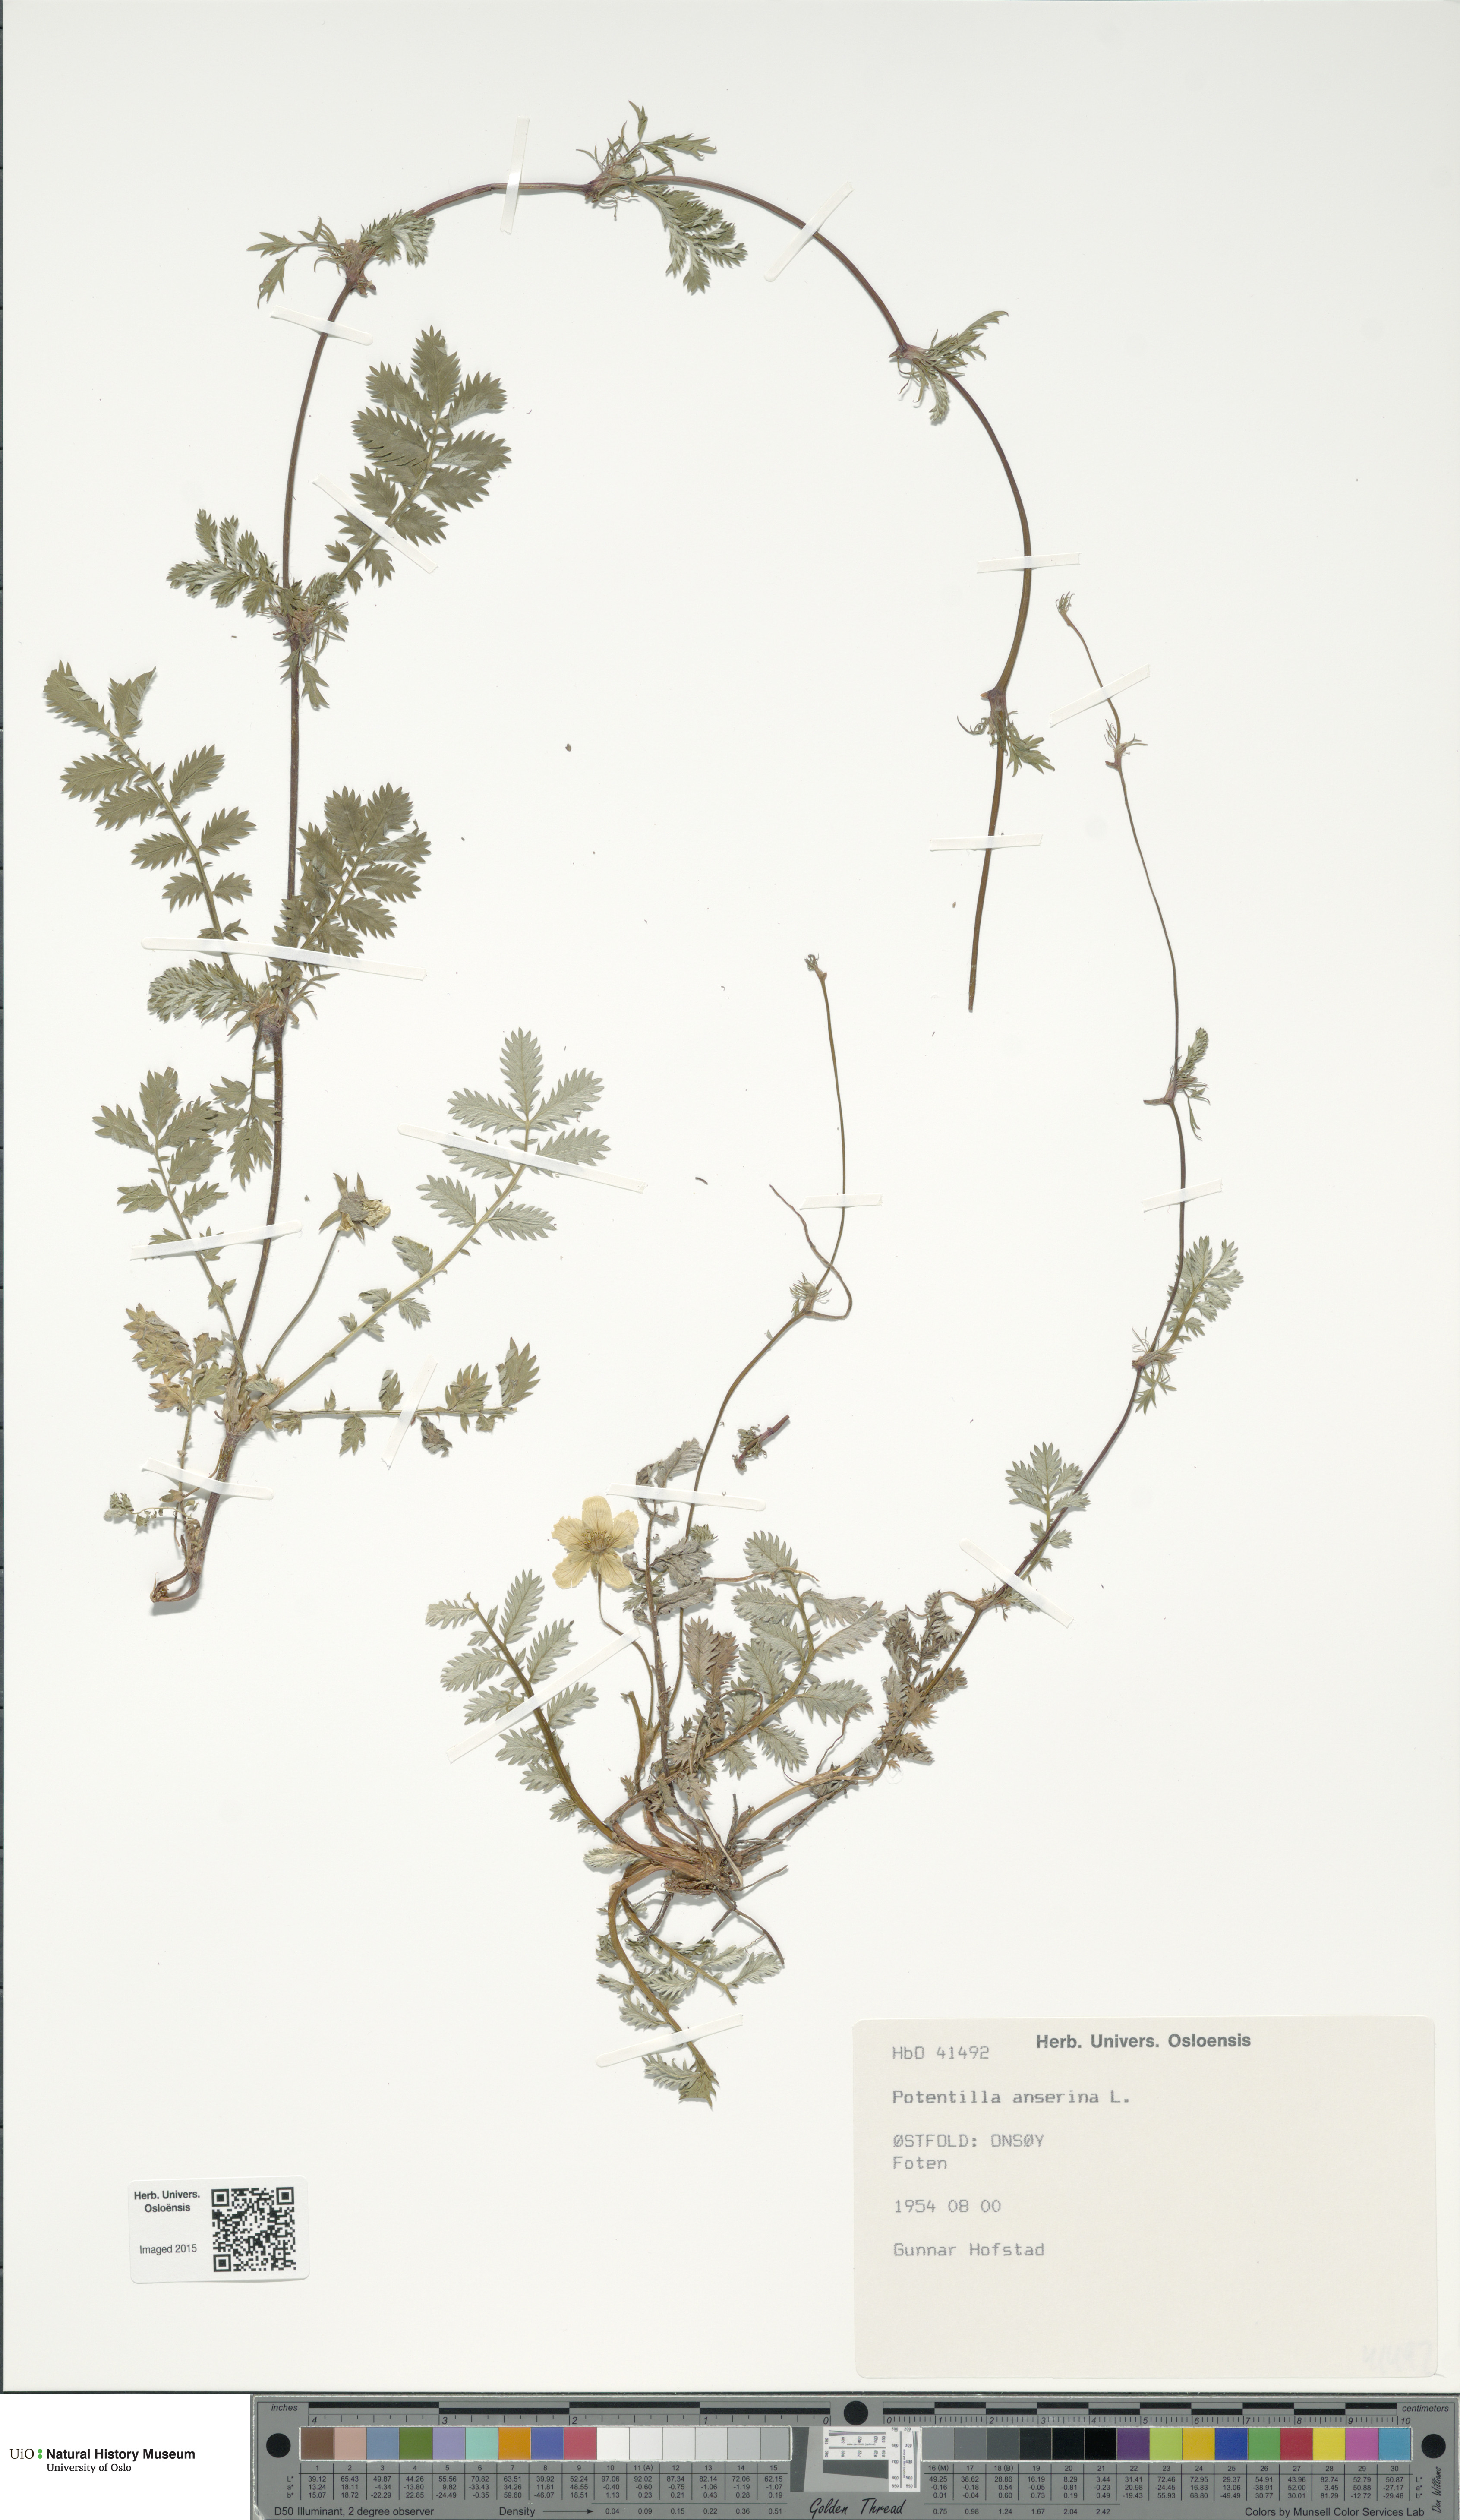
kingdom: Plantae
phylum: Tracheophyta
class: Magnoliopsida
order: Rosales
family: Rosaceae
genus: Argentina
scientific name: Argentina anserina
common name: Common silverweed
